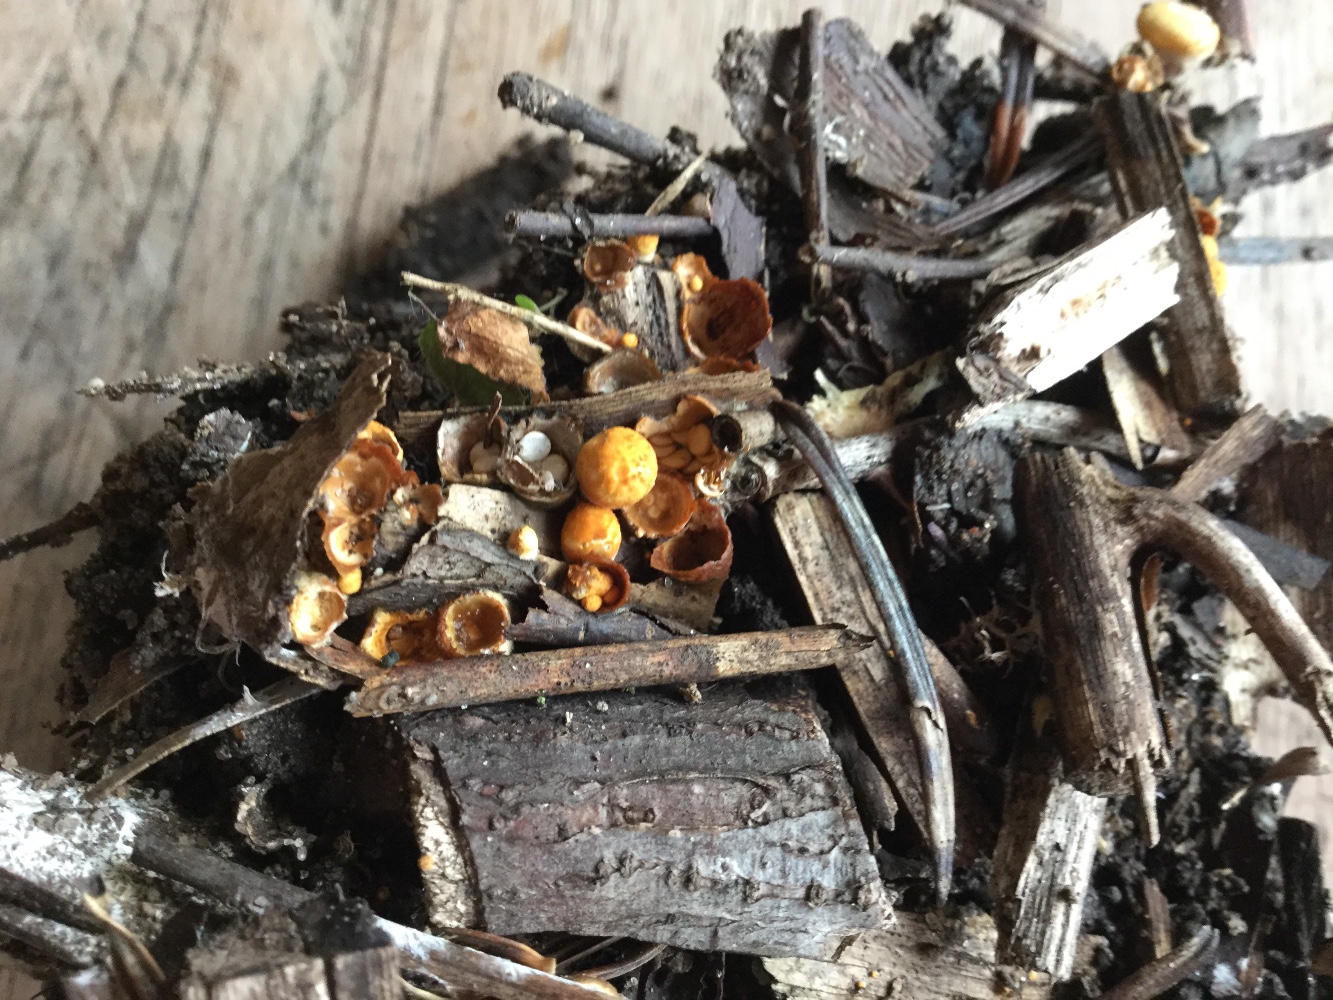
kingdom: Fungi
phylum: Basidiomycota
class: Agaricomycetes
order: Agaricales
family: Nidulariaceae
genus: Crucibulum
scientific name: Crucibulum crucibuliforme
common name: krukkesvamp
